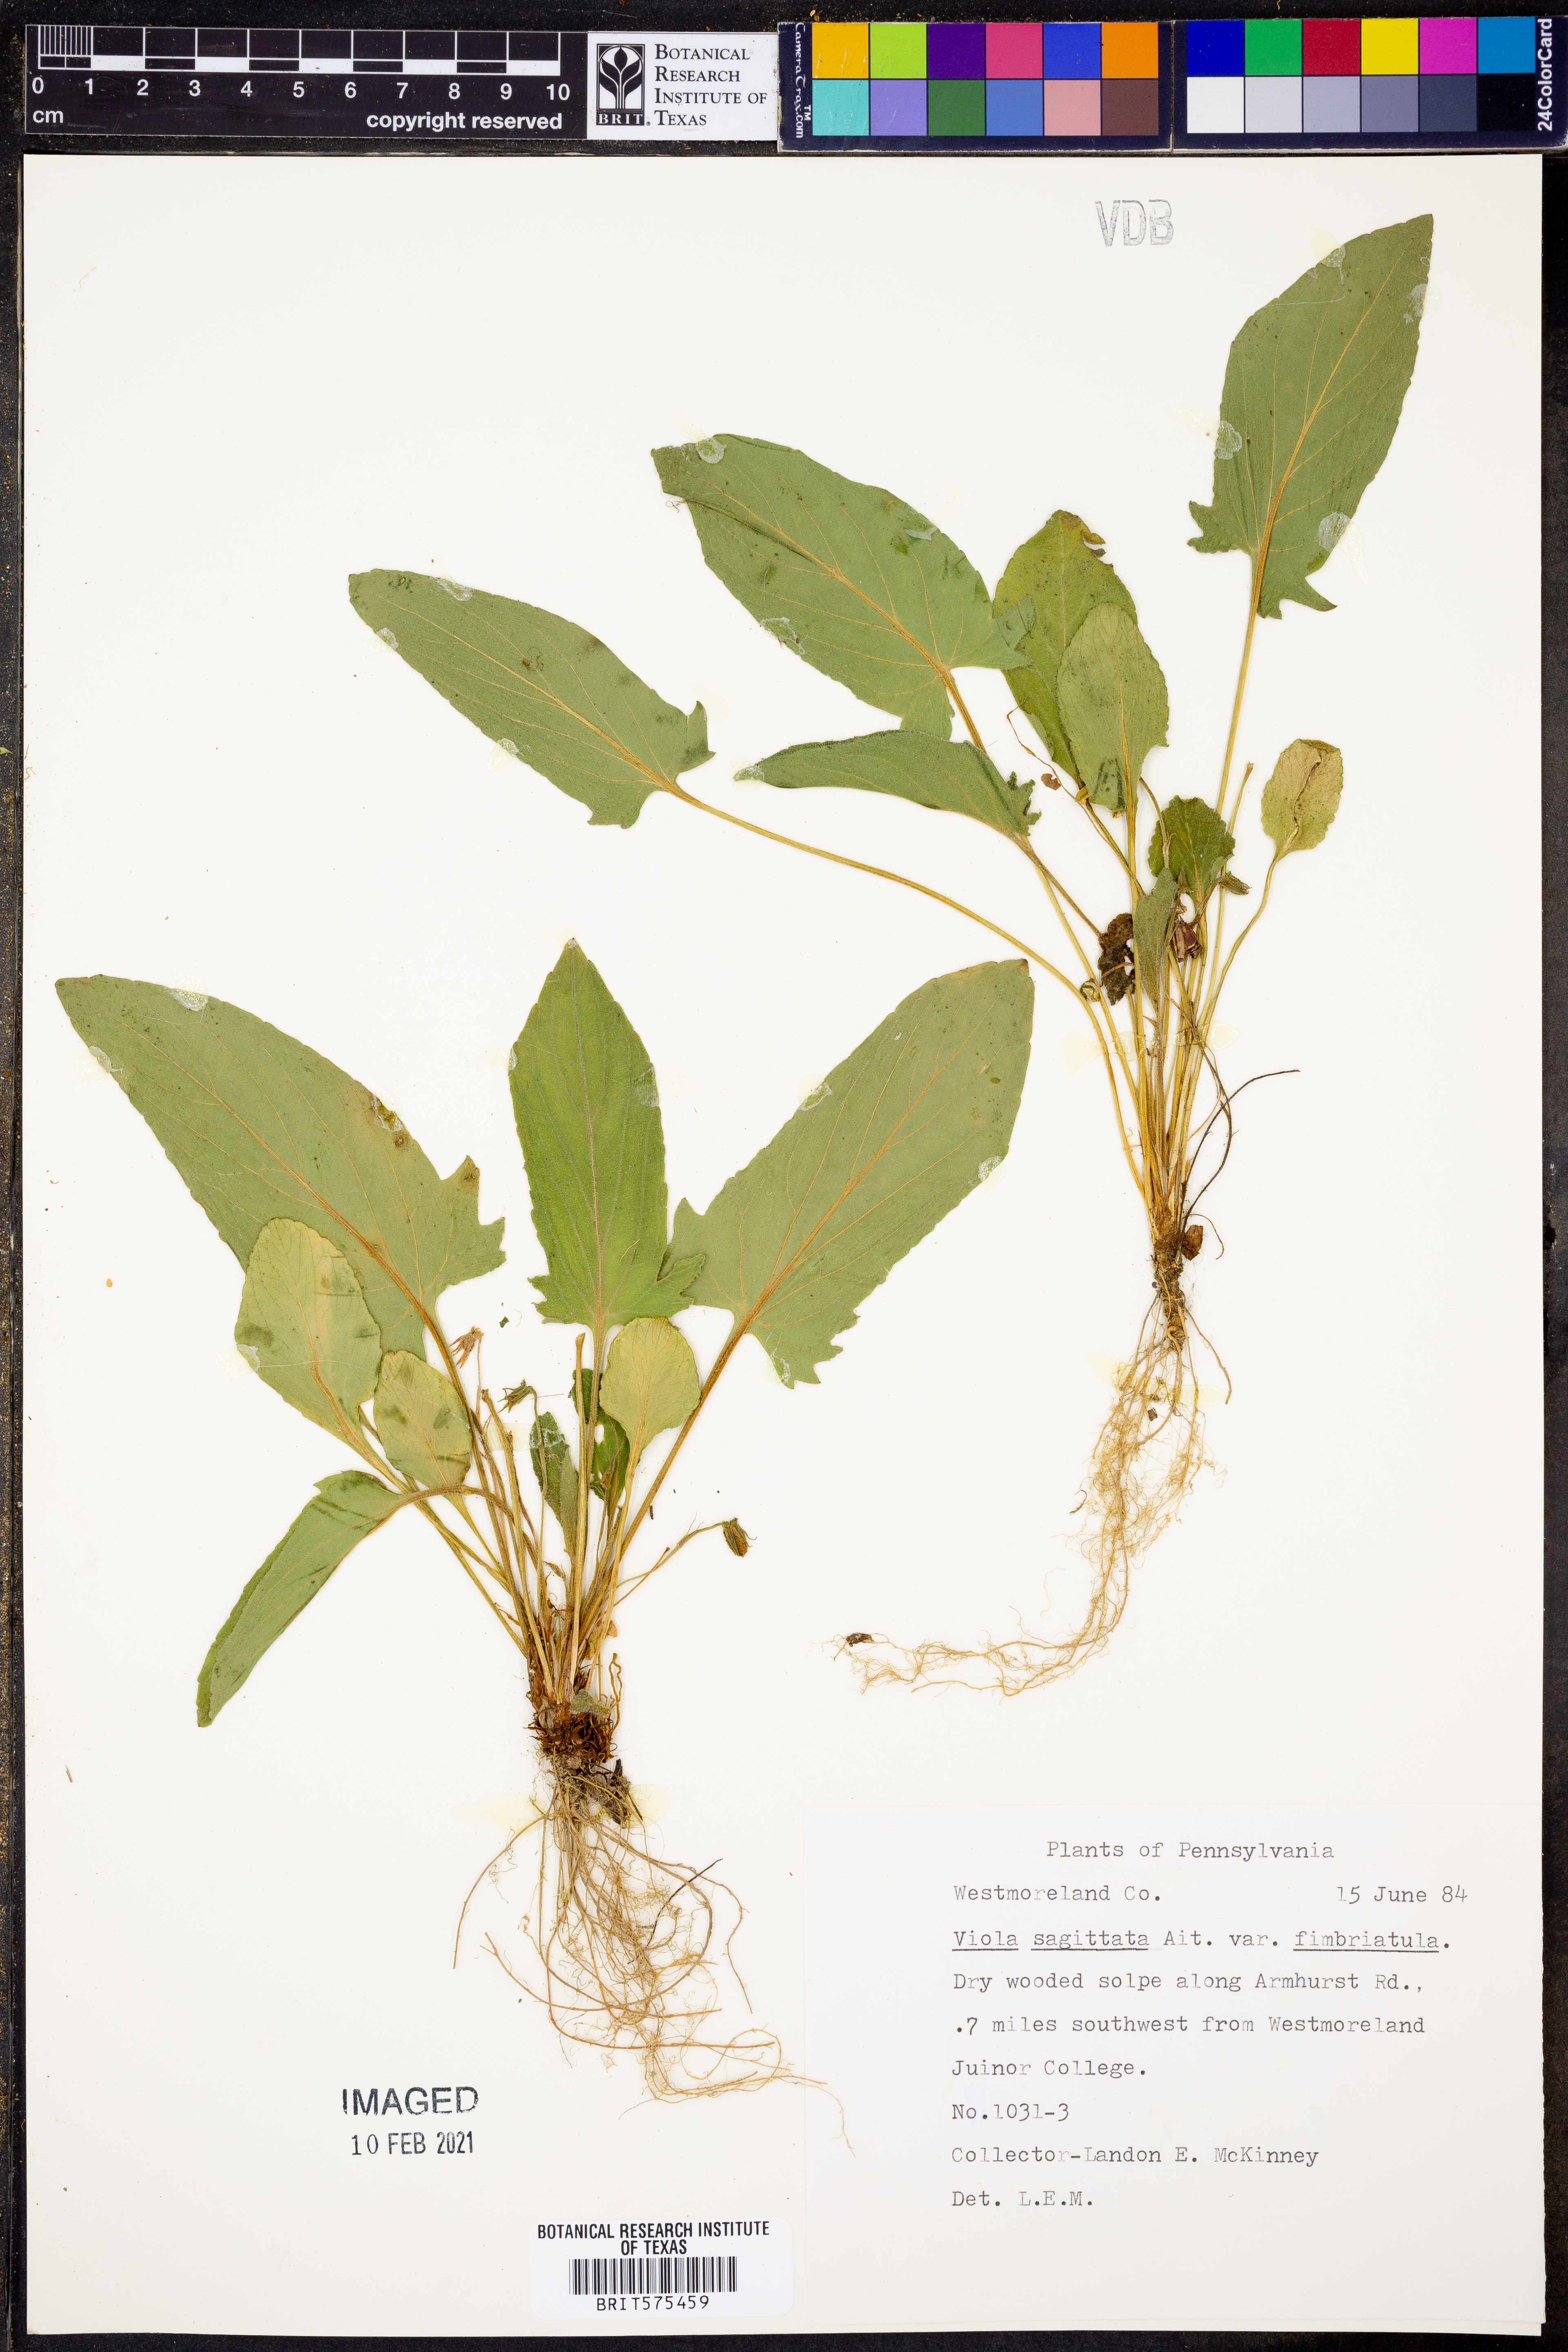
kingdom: Plantae
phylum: Tracheophyta
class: Magnoliopsida
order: Malpighiales
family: Violaceae
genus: Viola
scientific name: Viola sagittata
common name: Arrowhead violet
